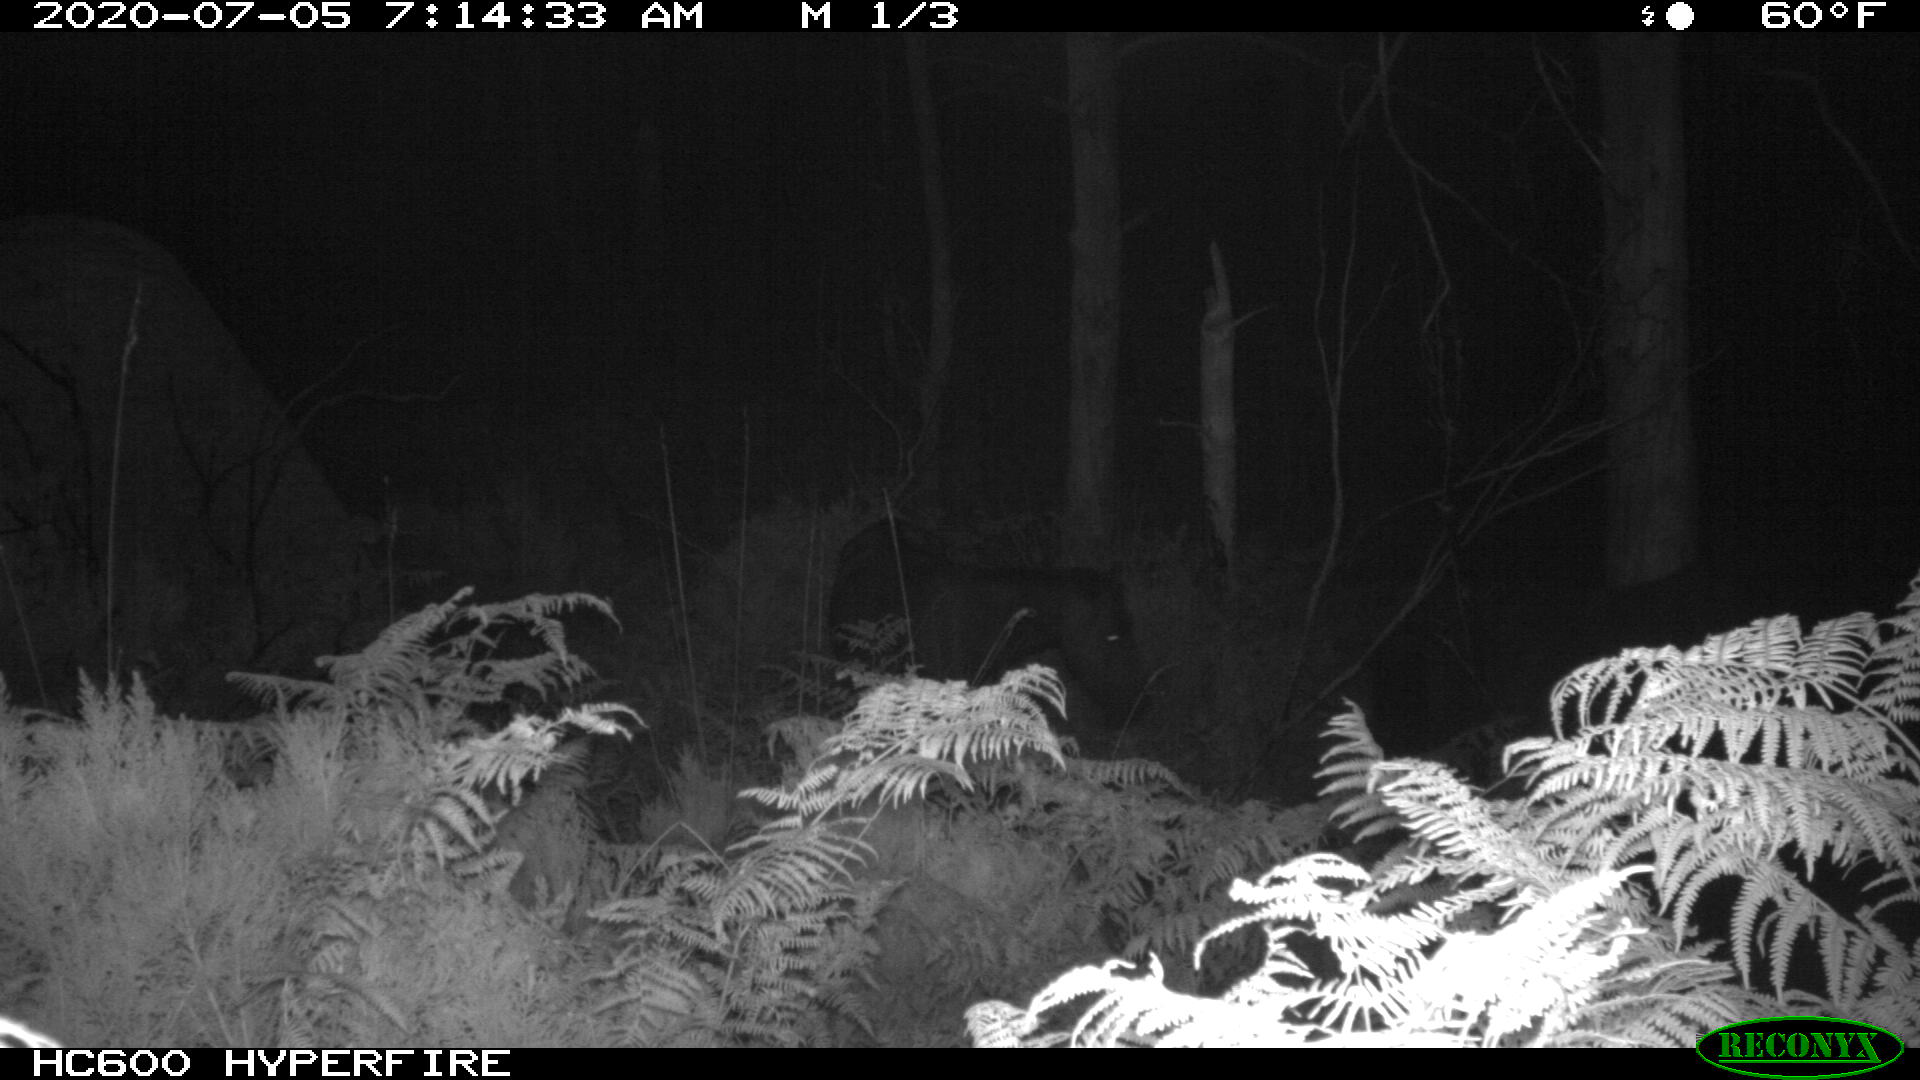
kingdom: Animalia
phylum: Chordata
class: Mammalia
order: Perissodactyla
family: Equidae
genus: Equus
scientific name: Equus caballus
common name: Horse
